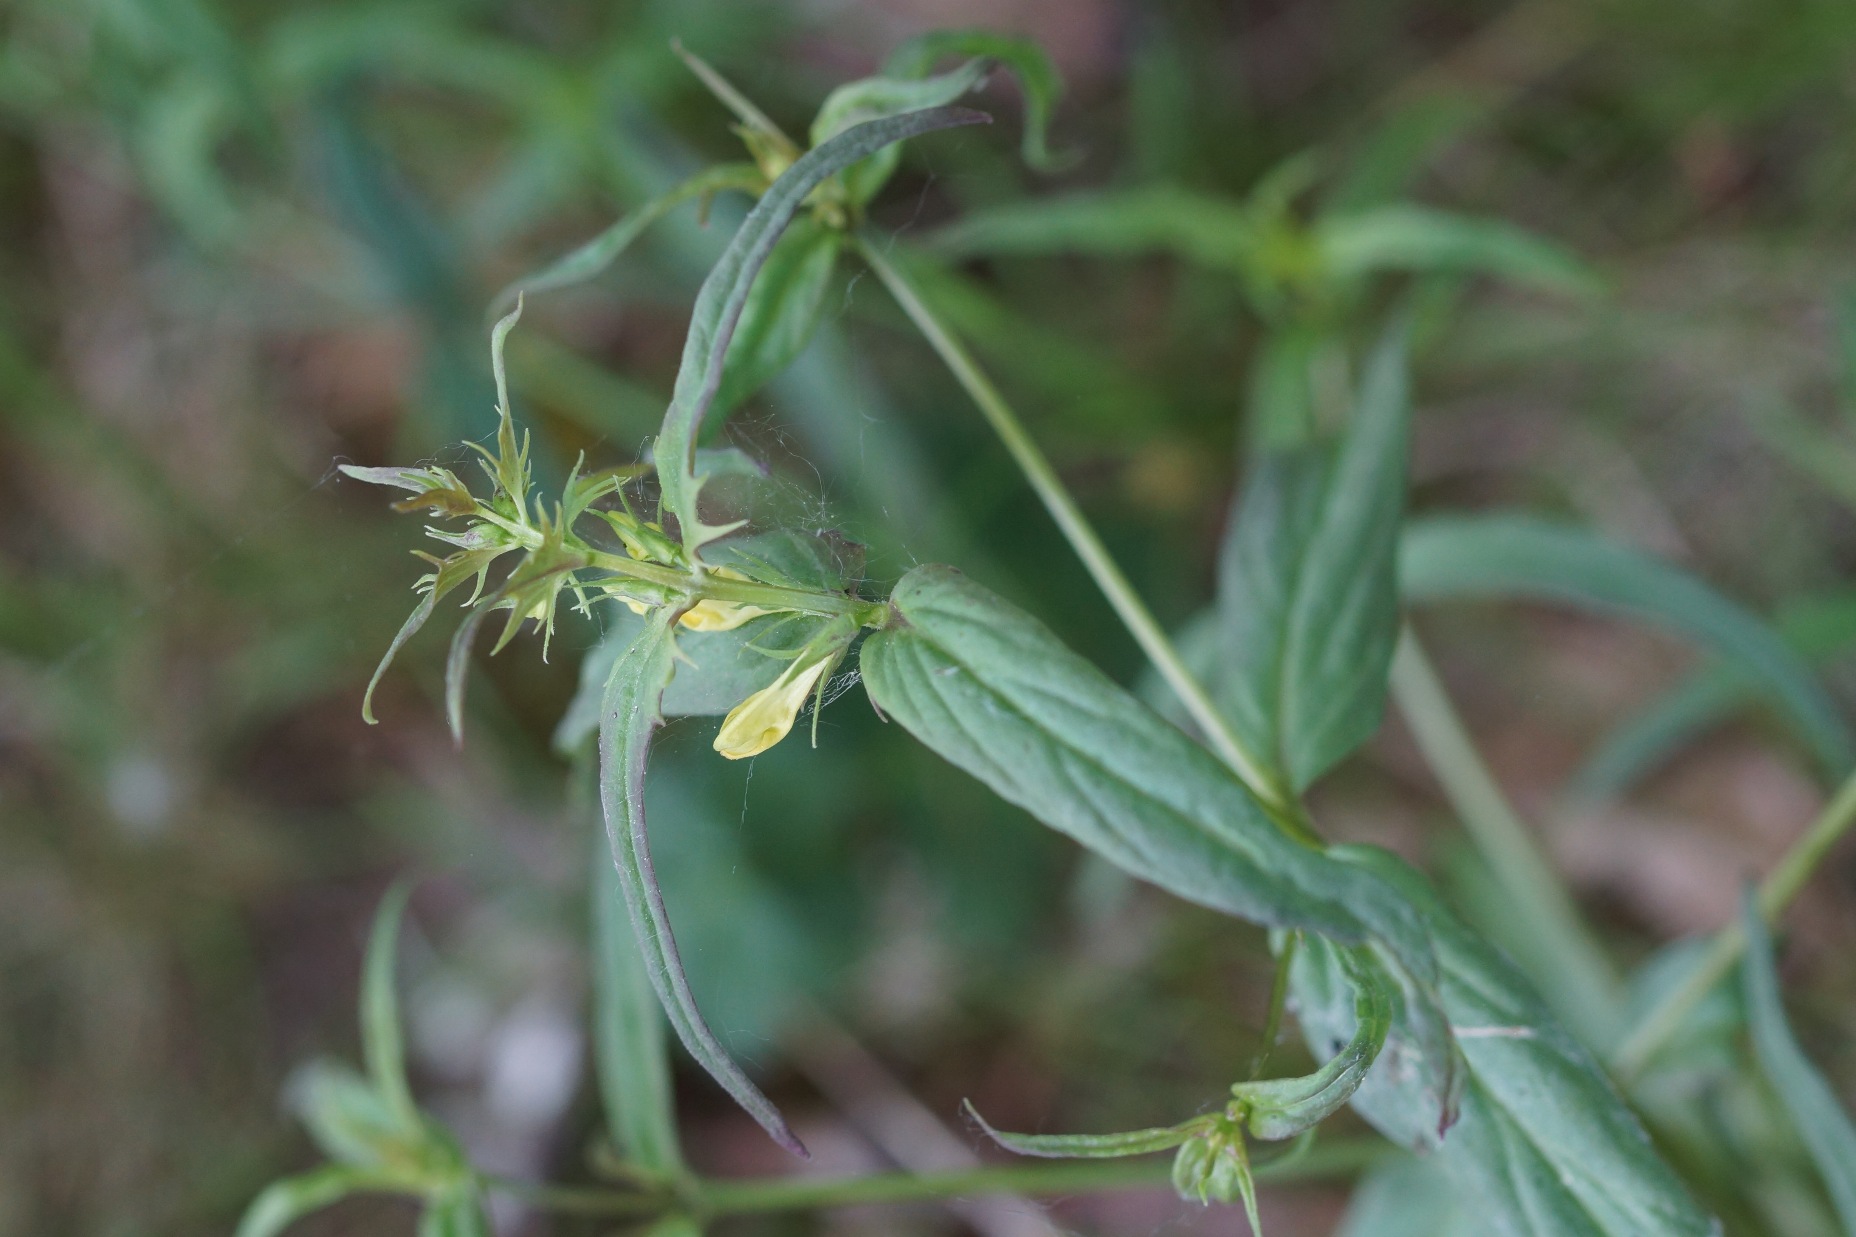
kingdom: Plantae
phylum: Tracheophyta
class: Magnoliopsida
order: Lamiales
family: Orobanchaceae
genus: Melampyrum
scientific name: Melampyrum pratense
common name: Almindelig kohvede
